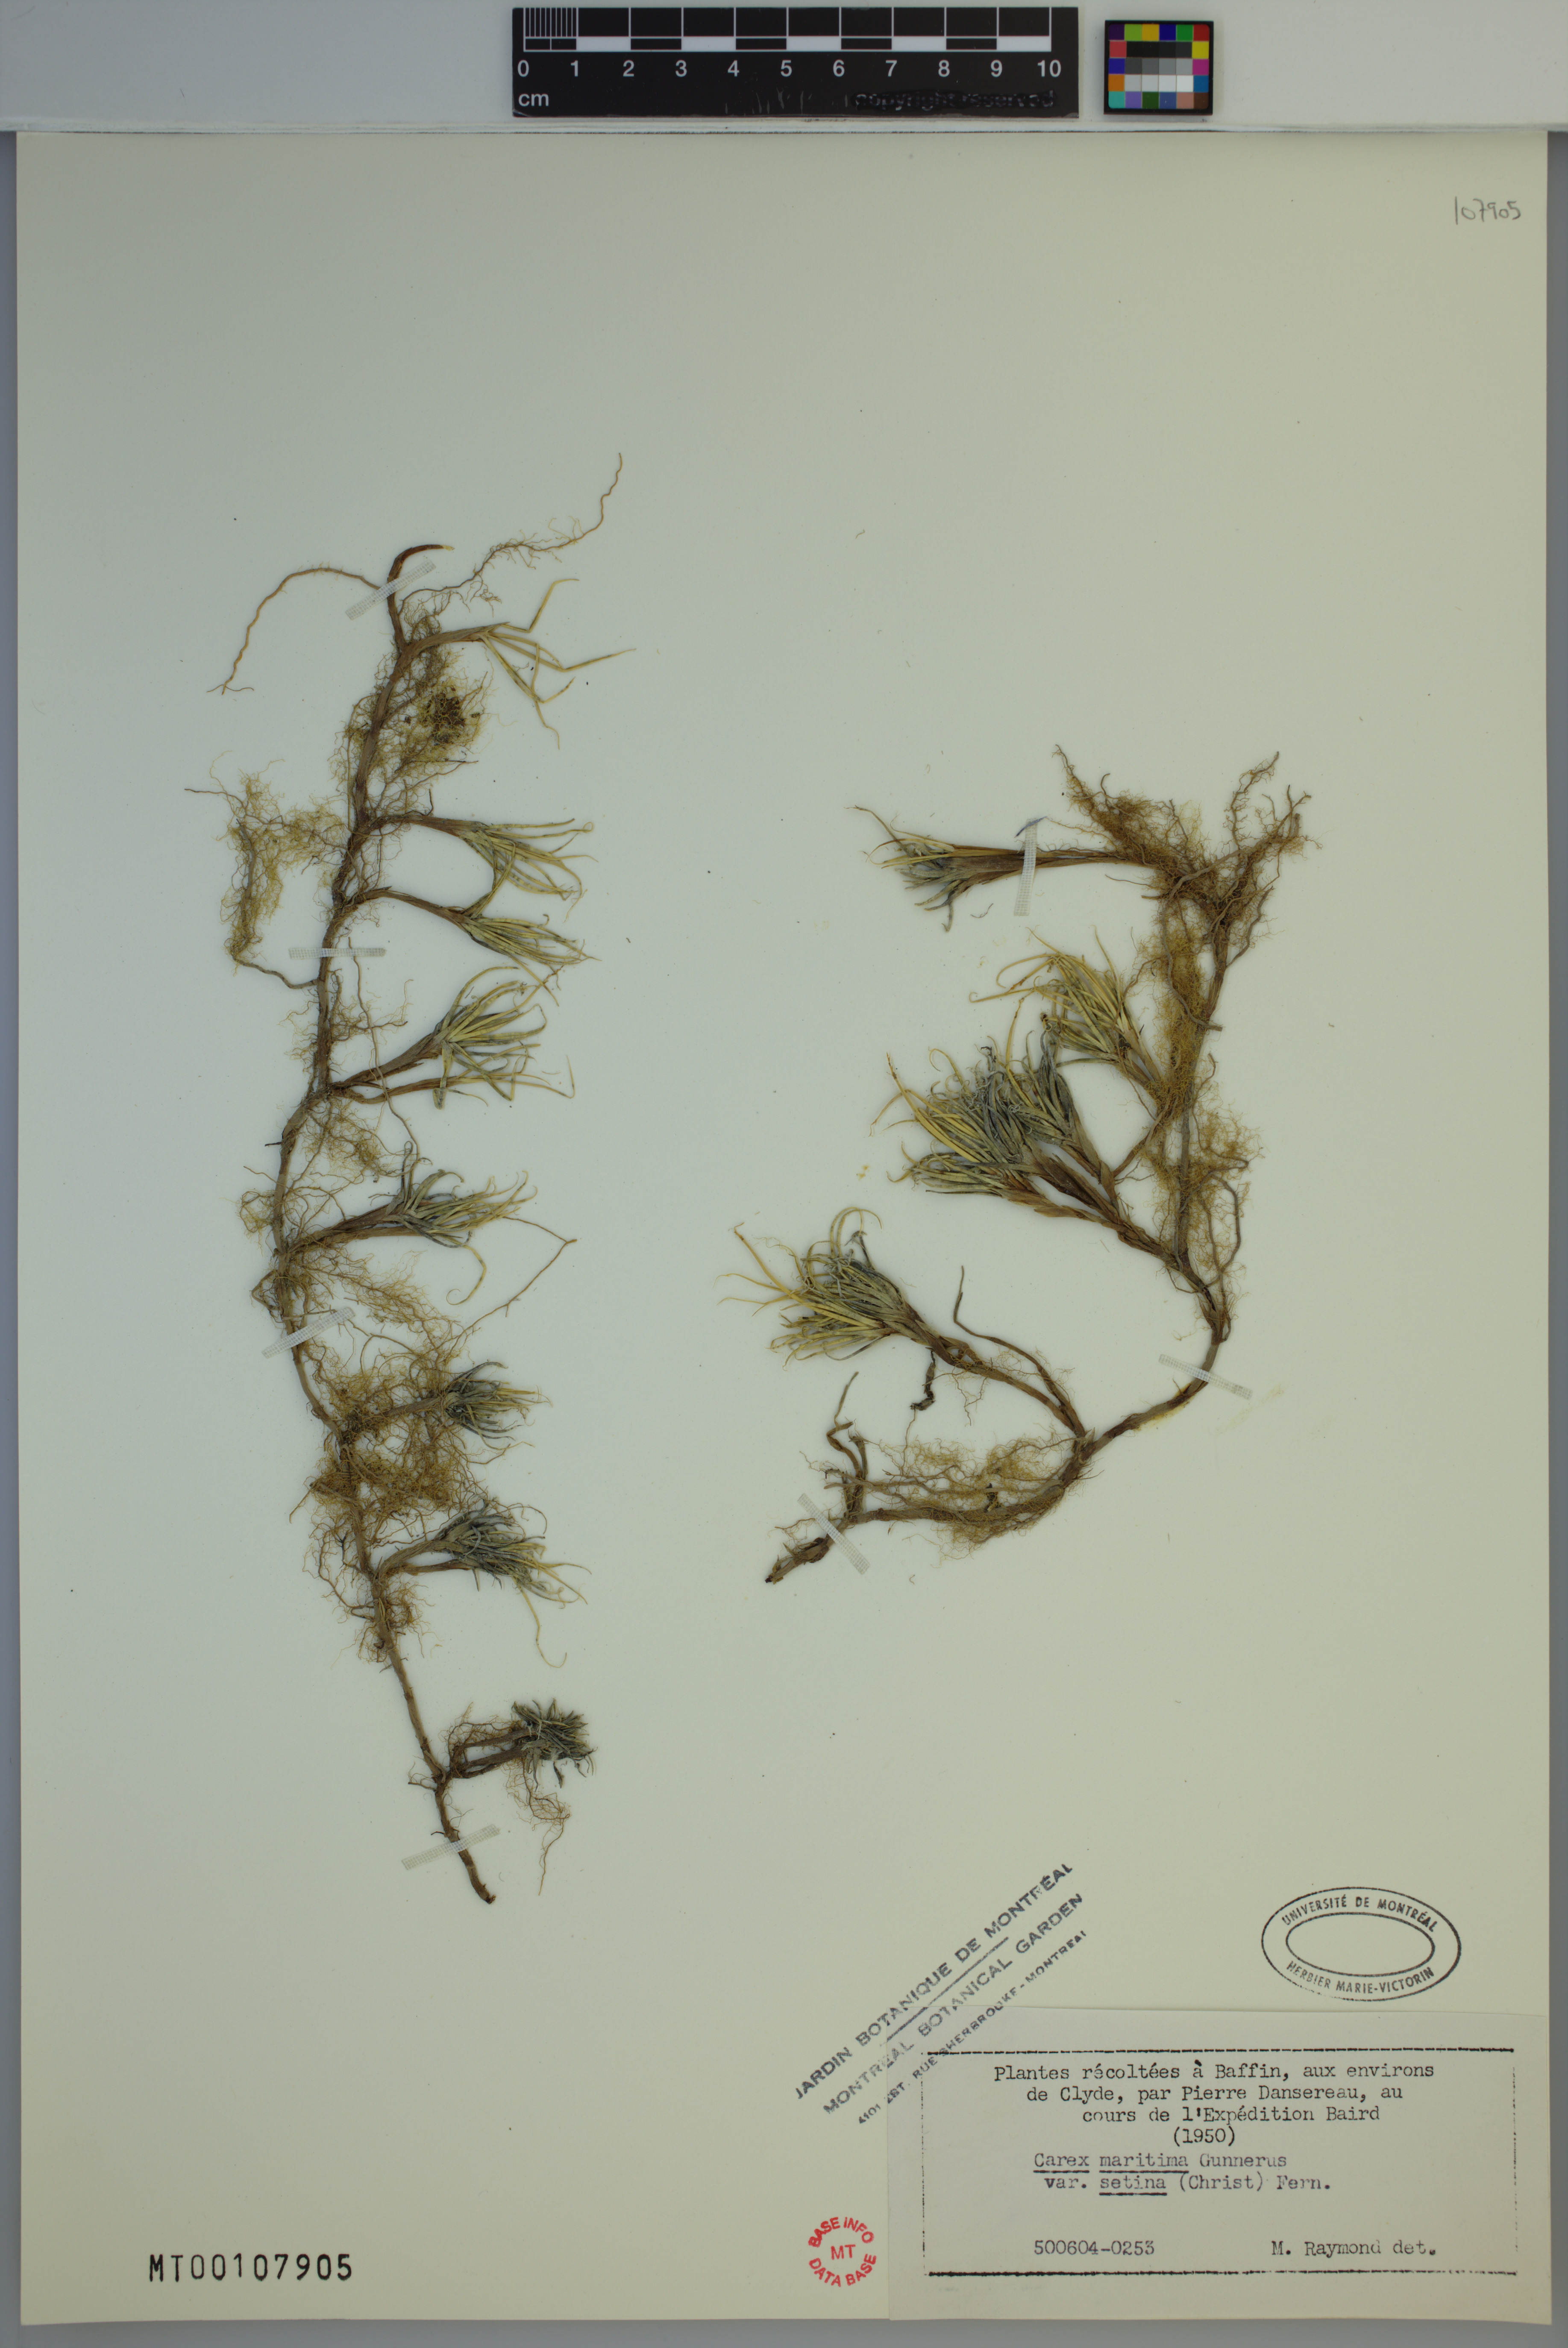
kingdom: Plantae
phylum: Tracheophyta
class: Liliopsida
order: Poales
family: Cyperaceae
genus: Carex
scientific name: Carex maritima
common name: Curved sedge
